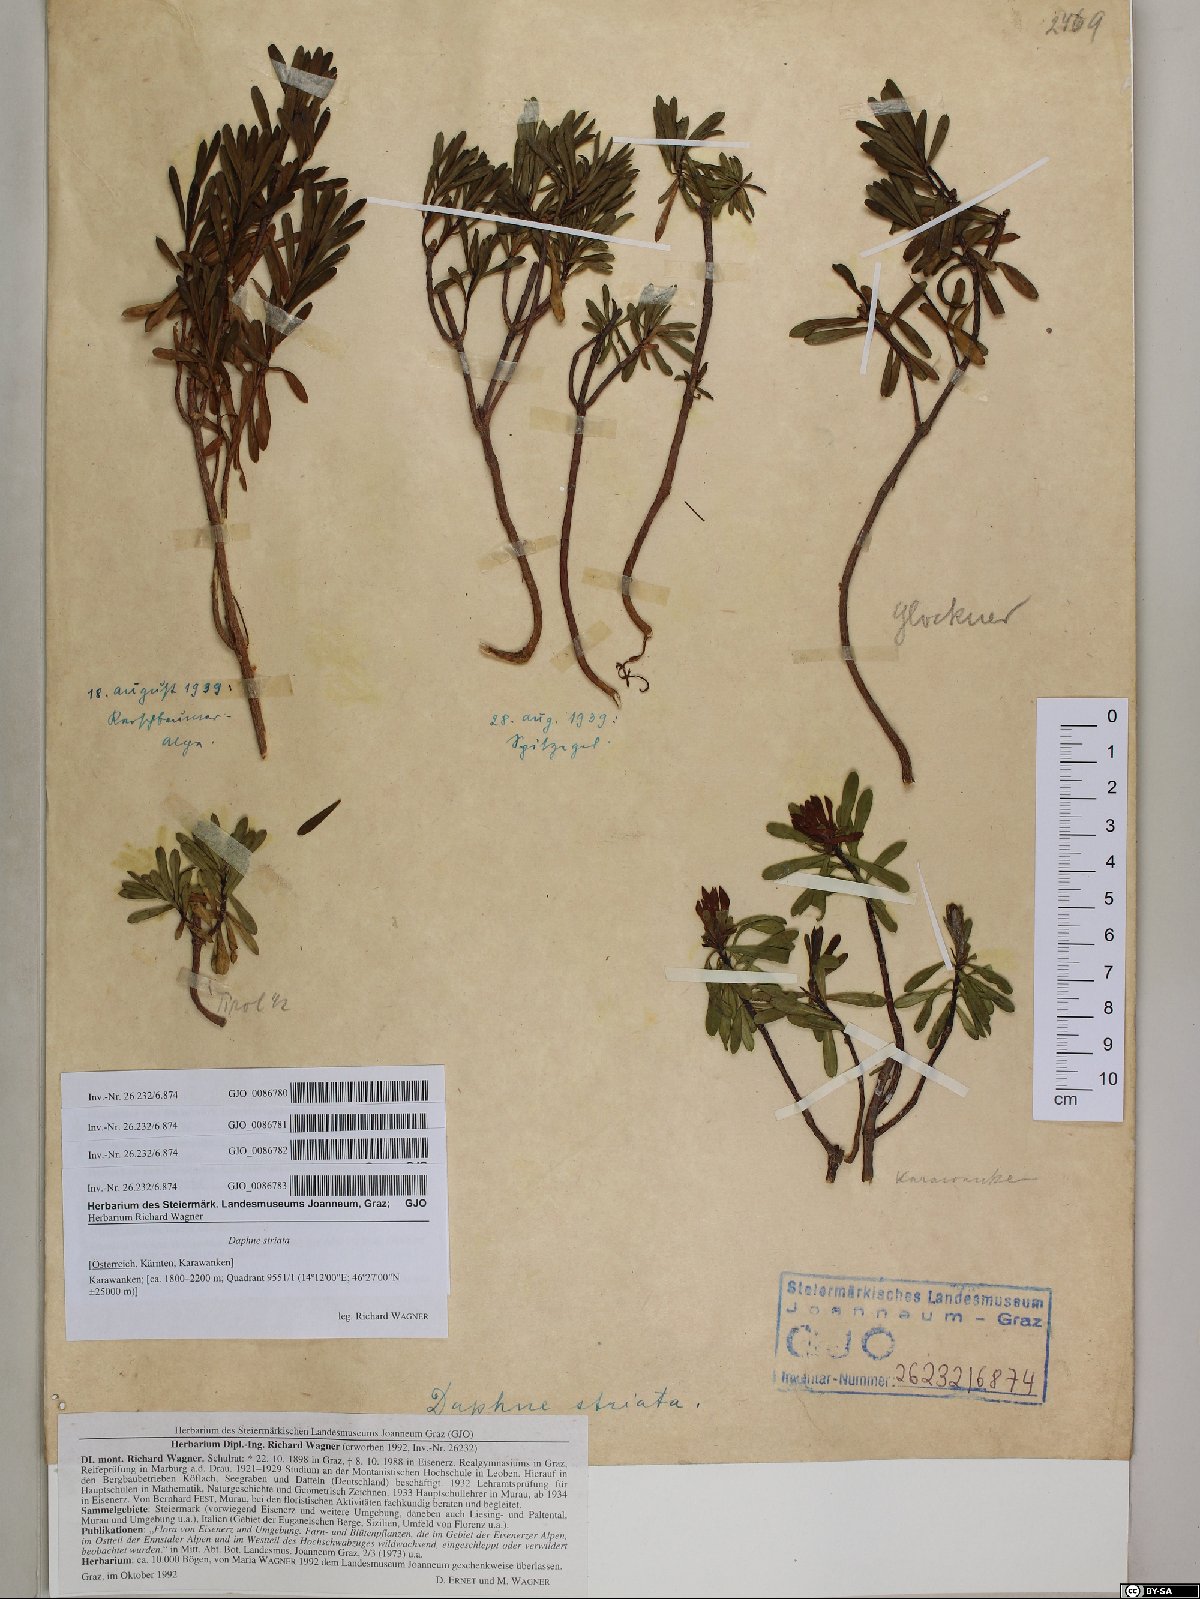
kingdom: Plantae
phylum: Tracheophyta
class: Magnoliopsida
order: Malvales
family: Thymelaeaceae
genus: Daphne
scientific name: Daphne striata
